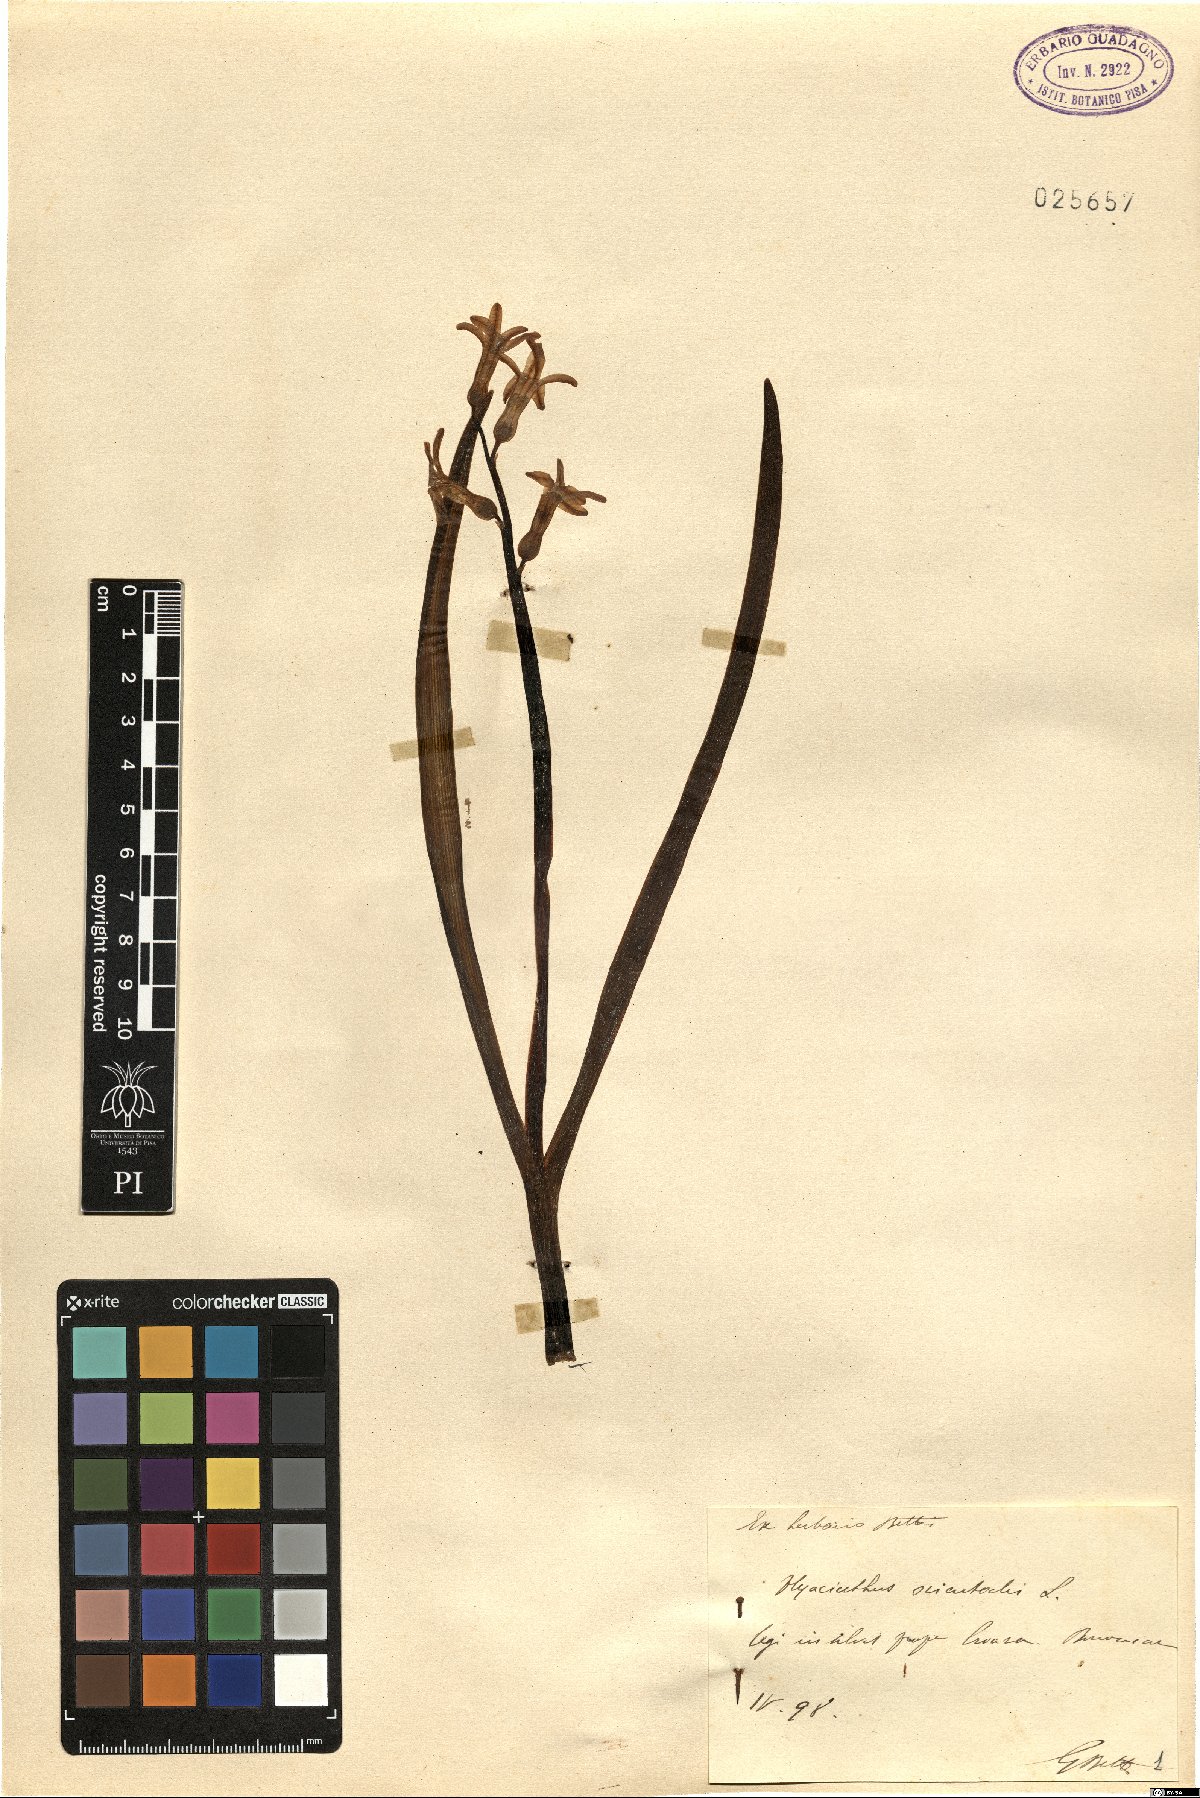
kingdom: Plantae
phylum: Tracheophyta
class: Liliopsida
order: Asparagales
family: Asparagaceae
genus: Hyacinthus
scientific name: Hyacinthus orientalis
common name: Hyacinth
